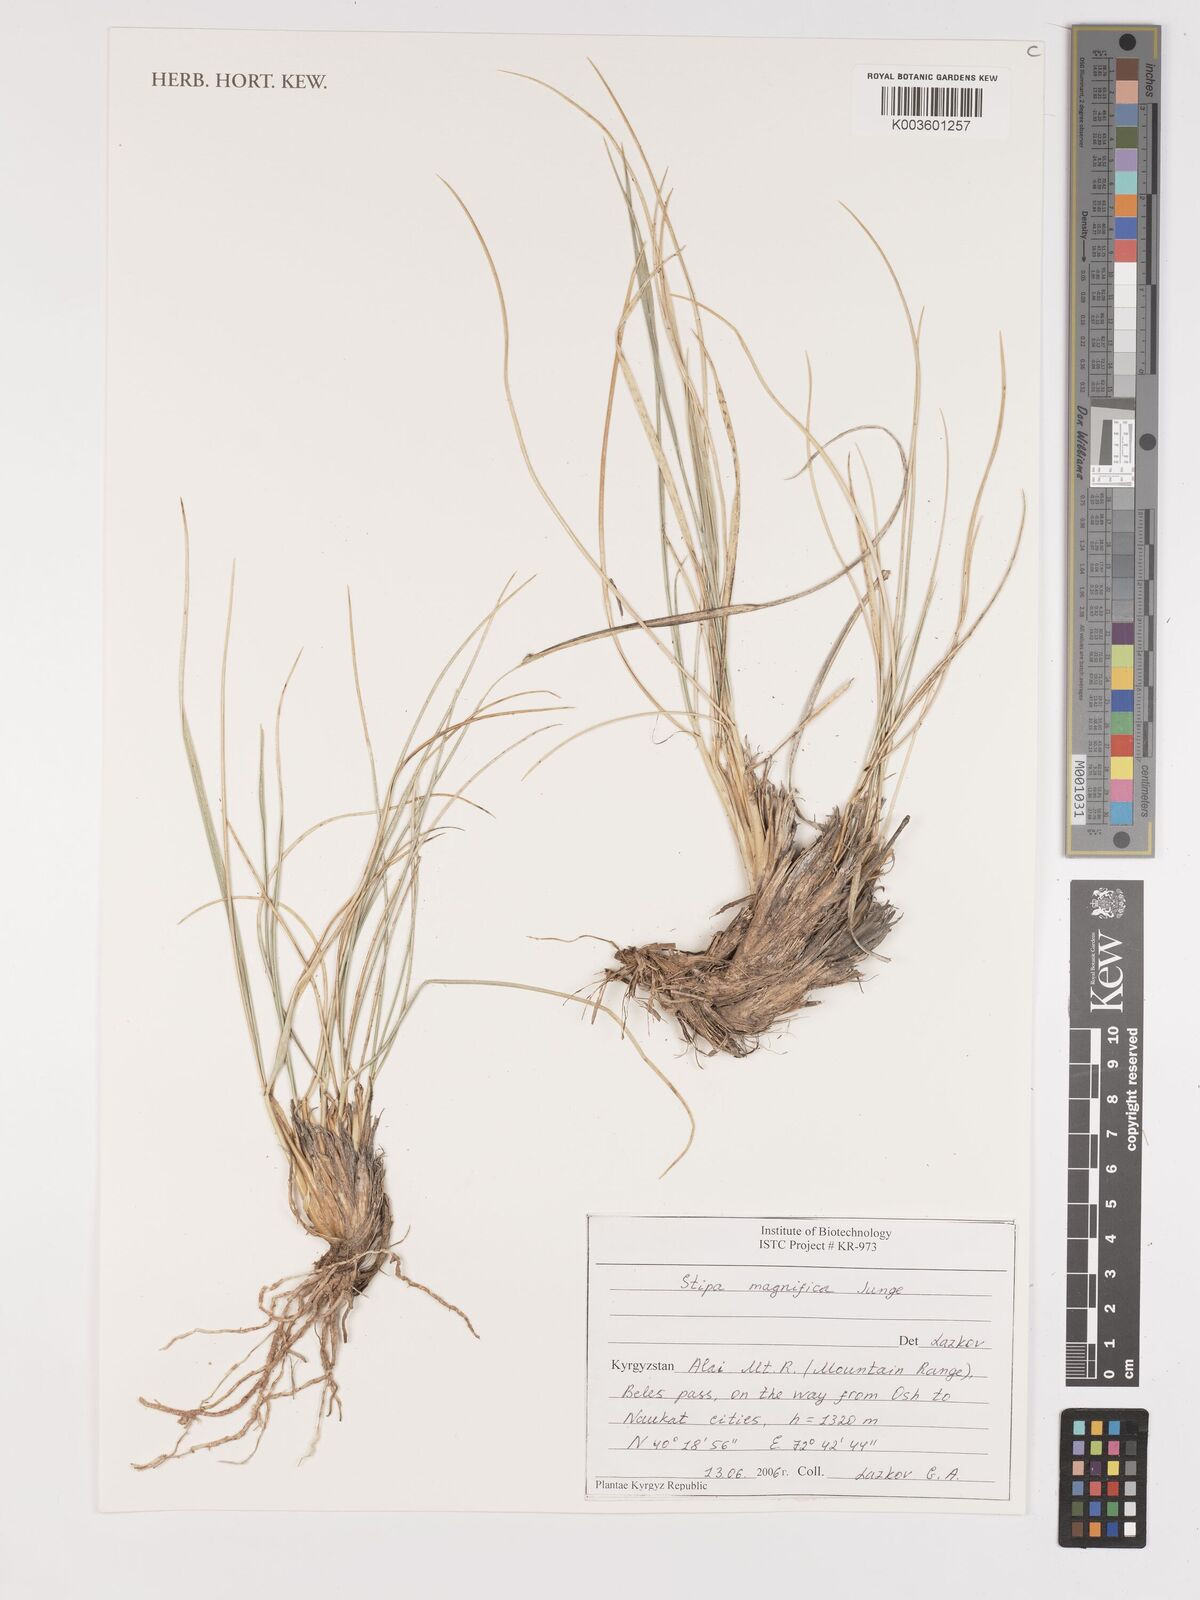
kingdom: Plantae
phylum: Tracheophyta
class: Liliopsida
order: Poales
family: Poaceae
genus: Stipa
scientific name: Stipa magnifica
